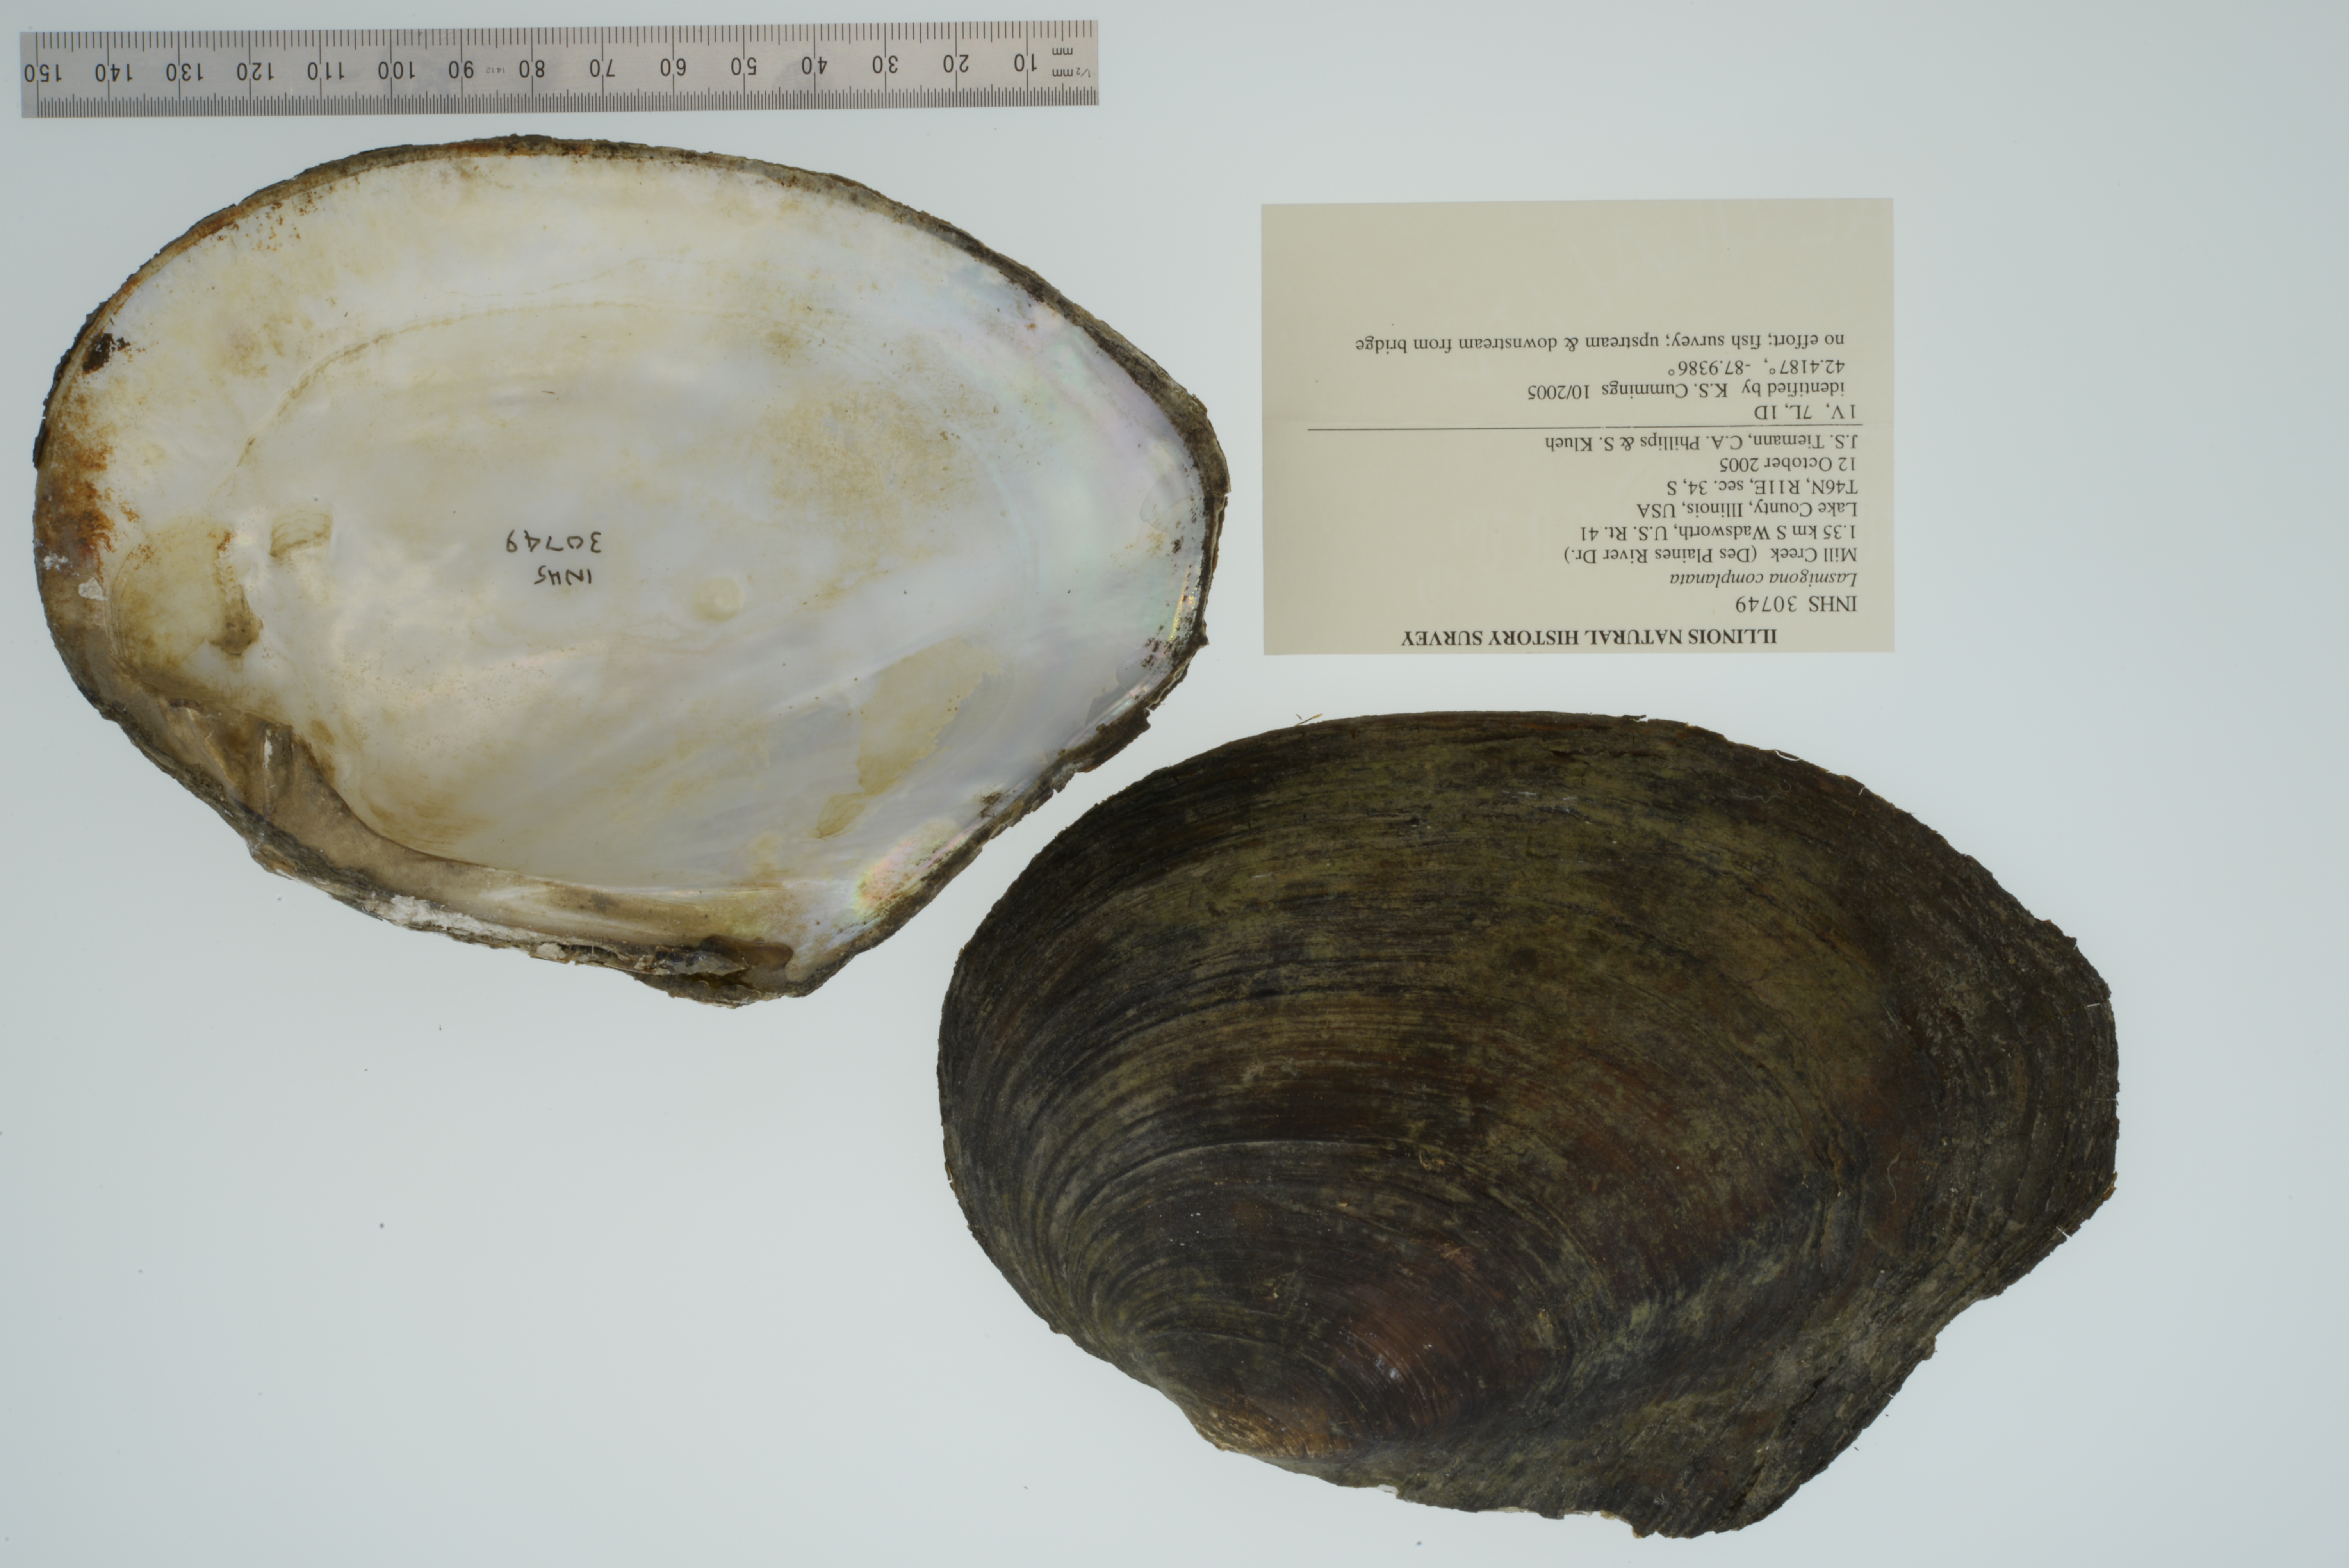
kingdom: Animalia
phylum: Mollusca
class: Bivalvia
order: Unionida
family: Unionidae
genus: Lasmigona
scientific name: Lasmigona complanata
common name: White heelsplitter
